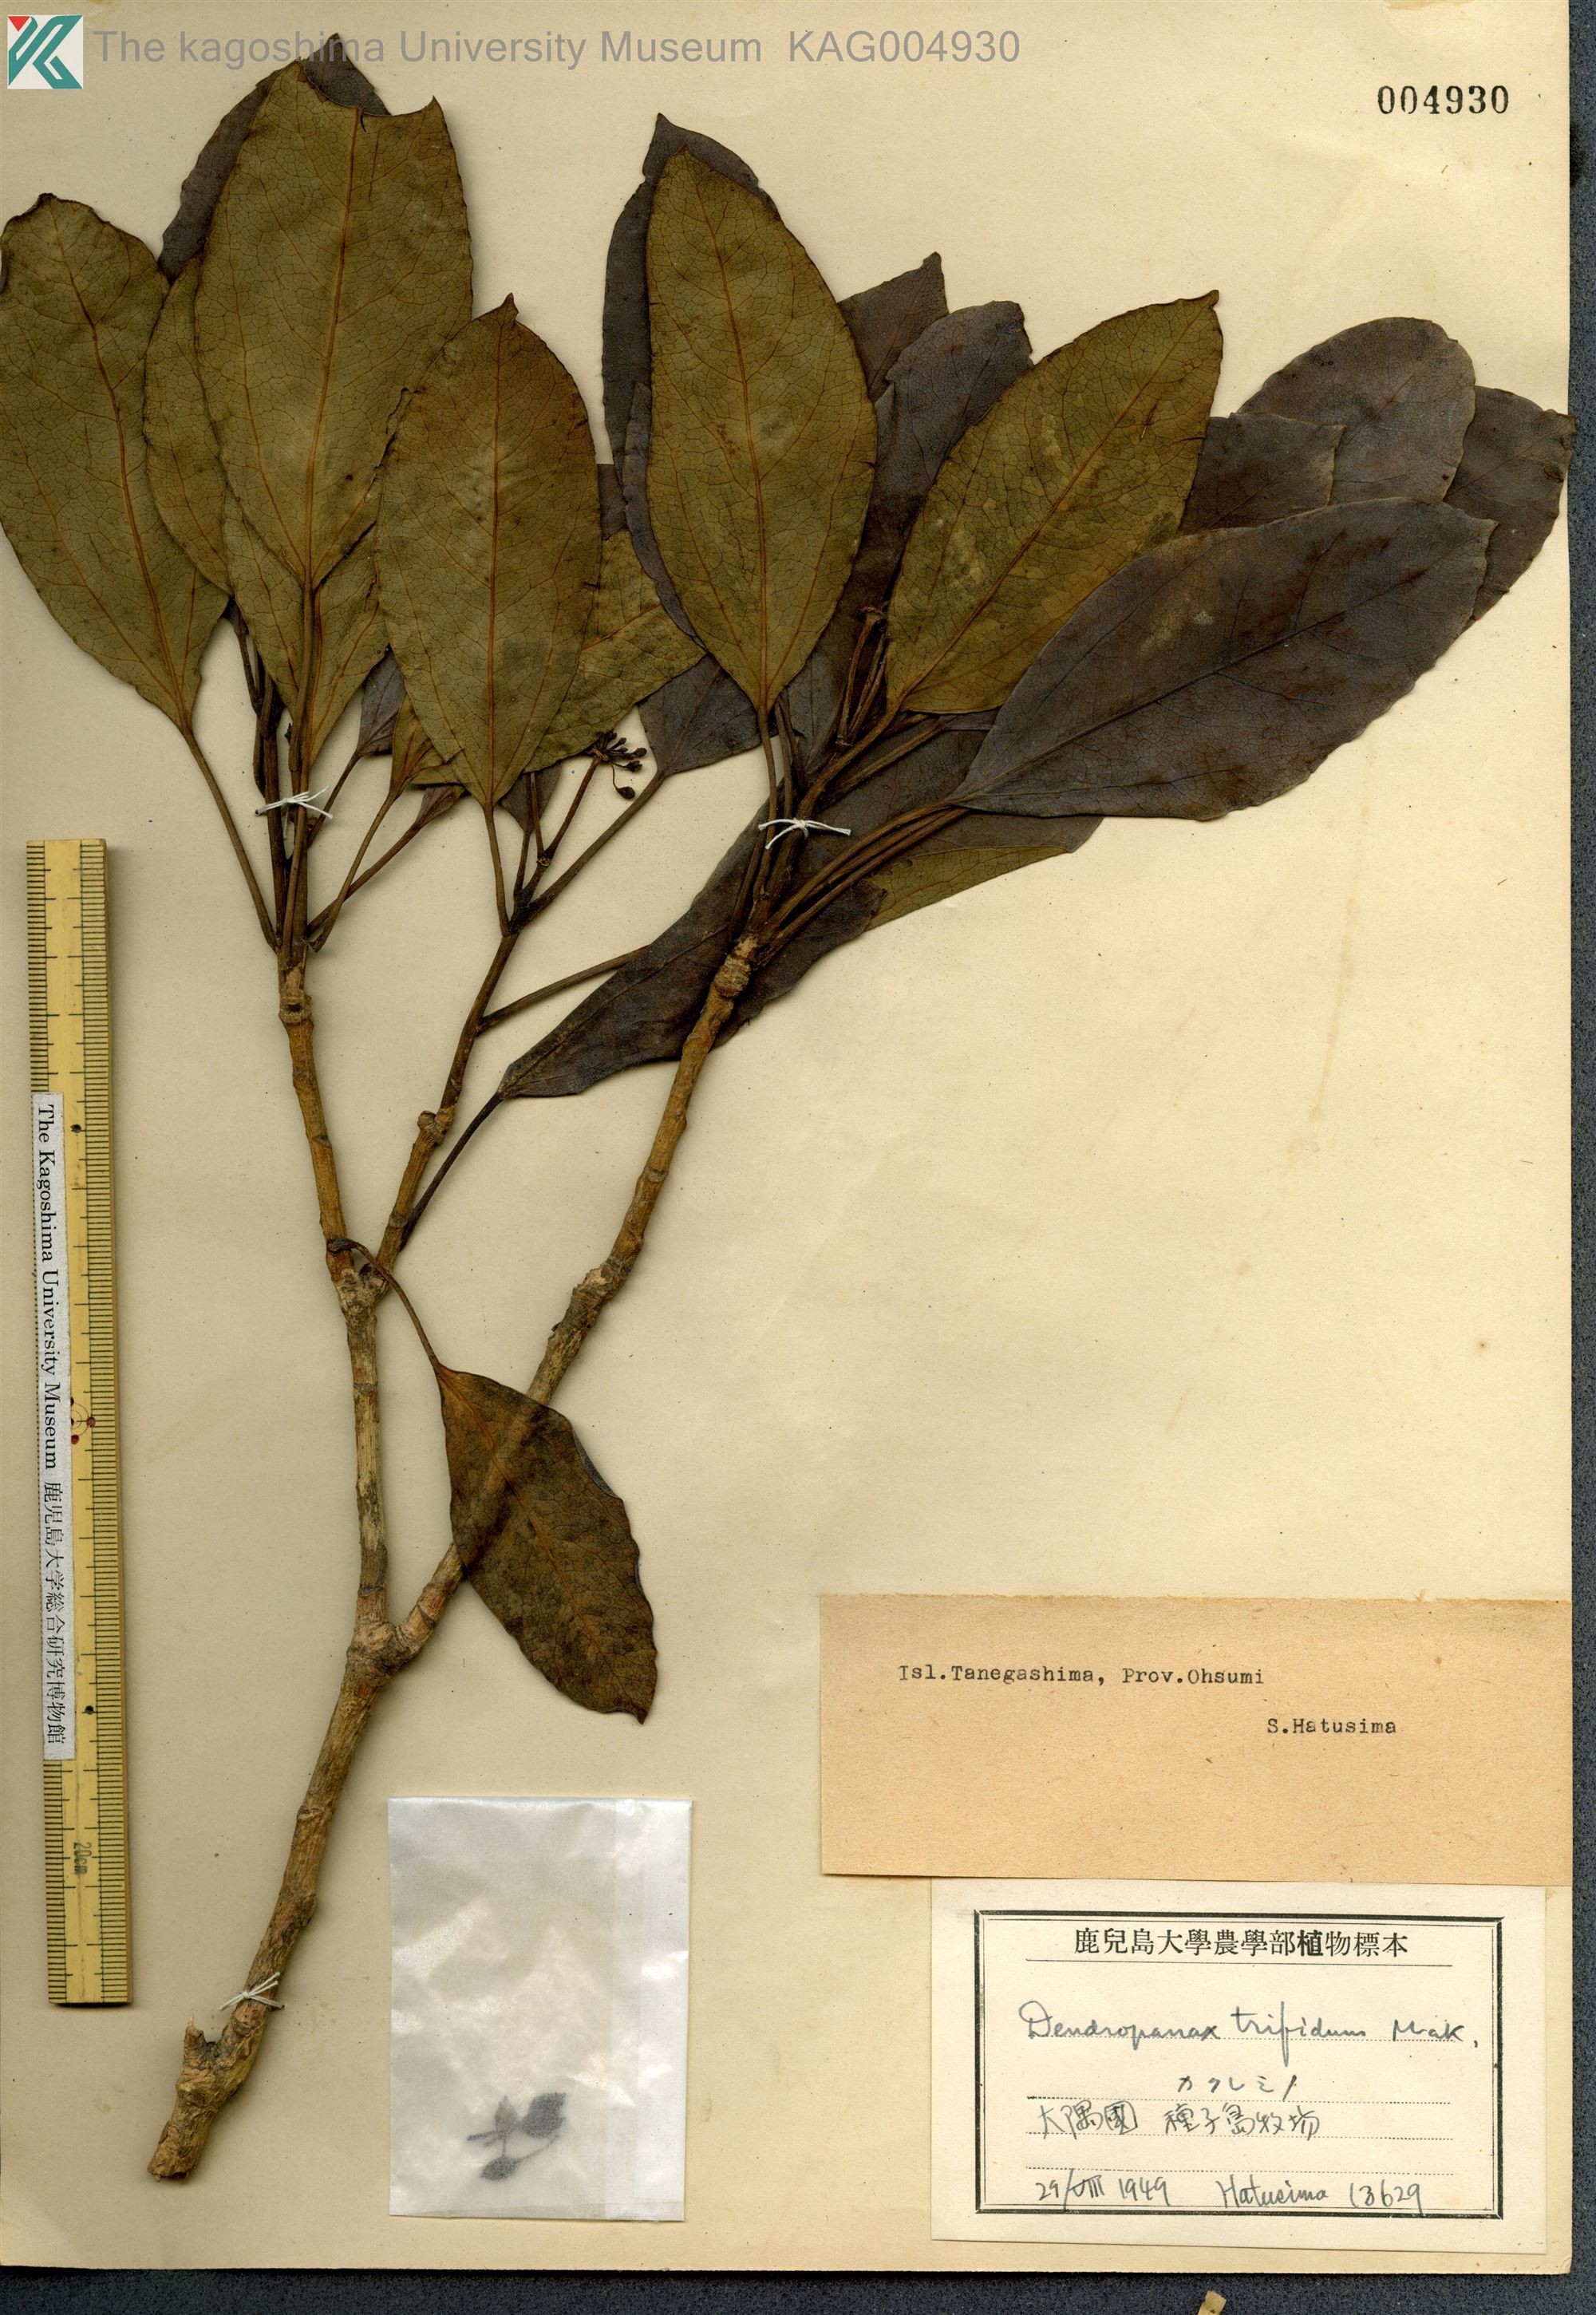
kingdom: Plantae
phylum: Tracheophyta
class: Magnoliopsida
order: Apiales
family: Araliaceae
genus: Dendropanax
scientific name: Dendropanax trifidus
